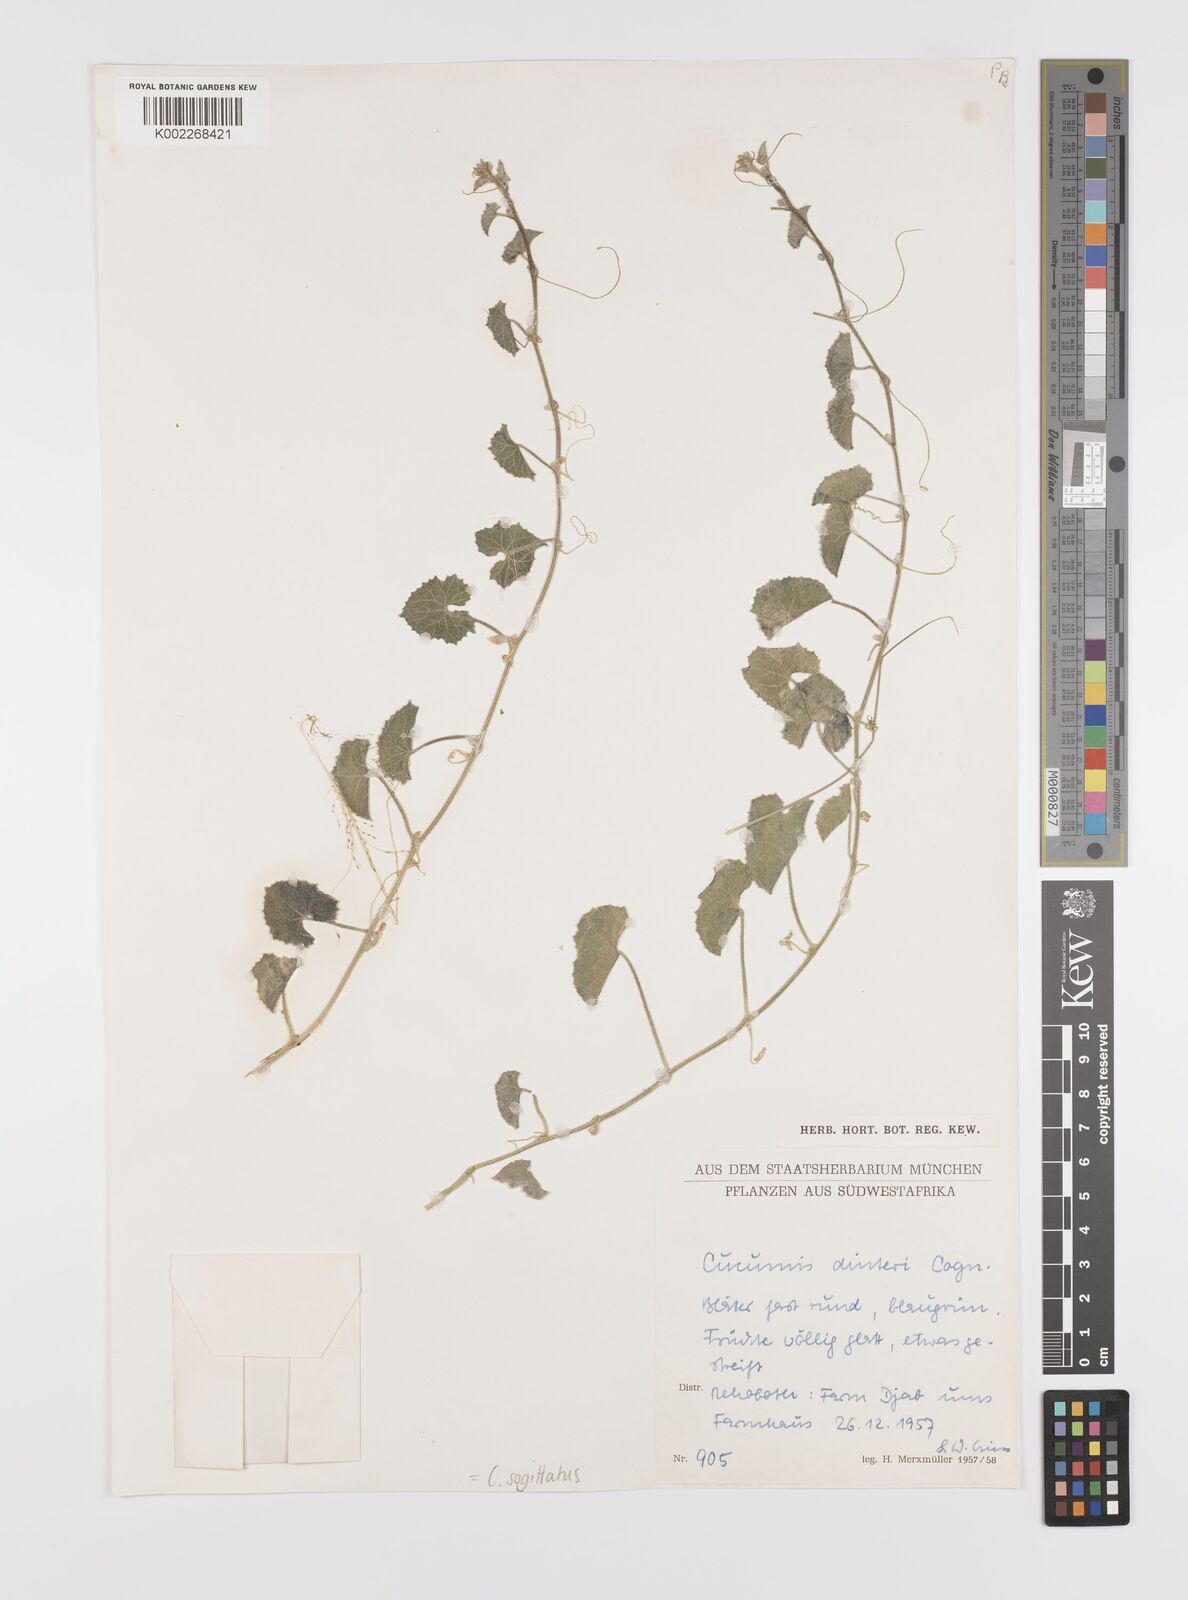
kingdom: Plantae
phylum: Tracheophyta
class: Magnoliopsida
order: Cucurbitales
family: Cucurbitaceae
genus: Cucumis
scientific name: Cucumis sagittatus
